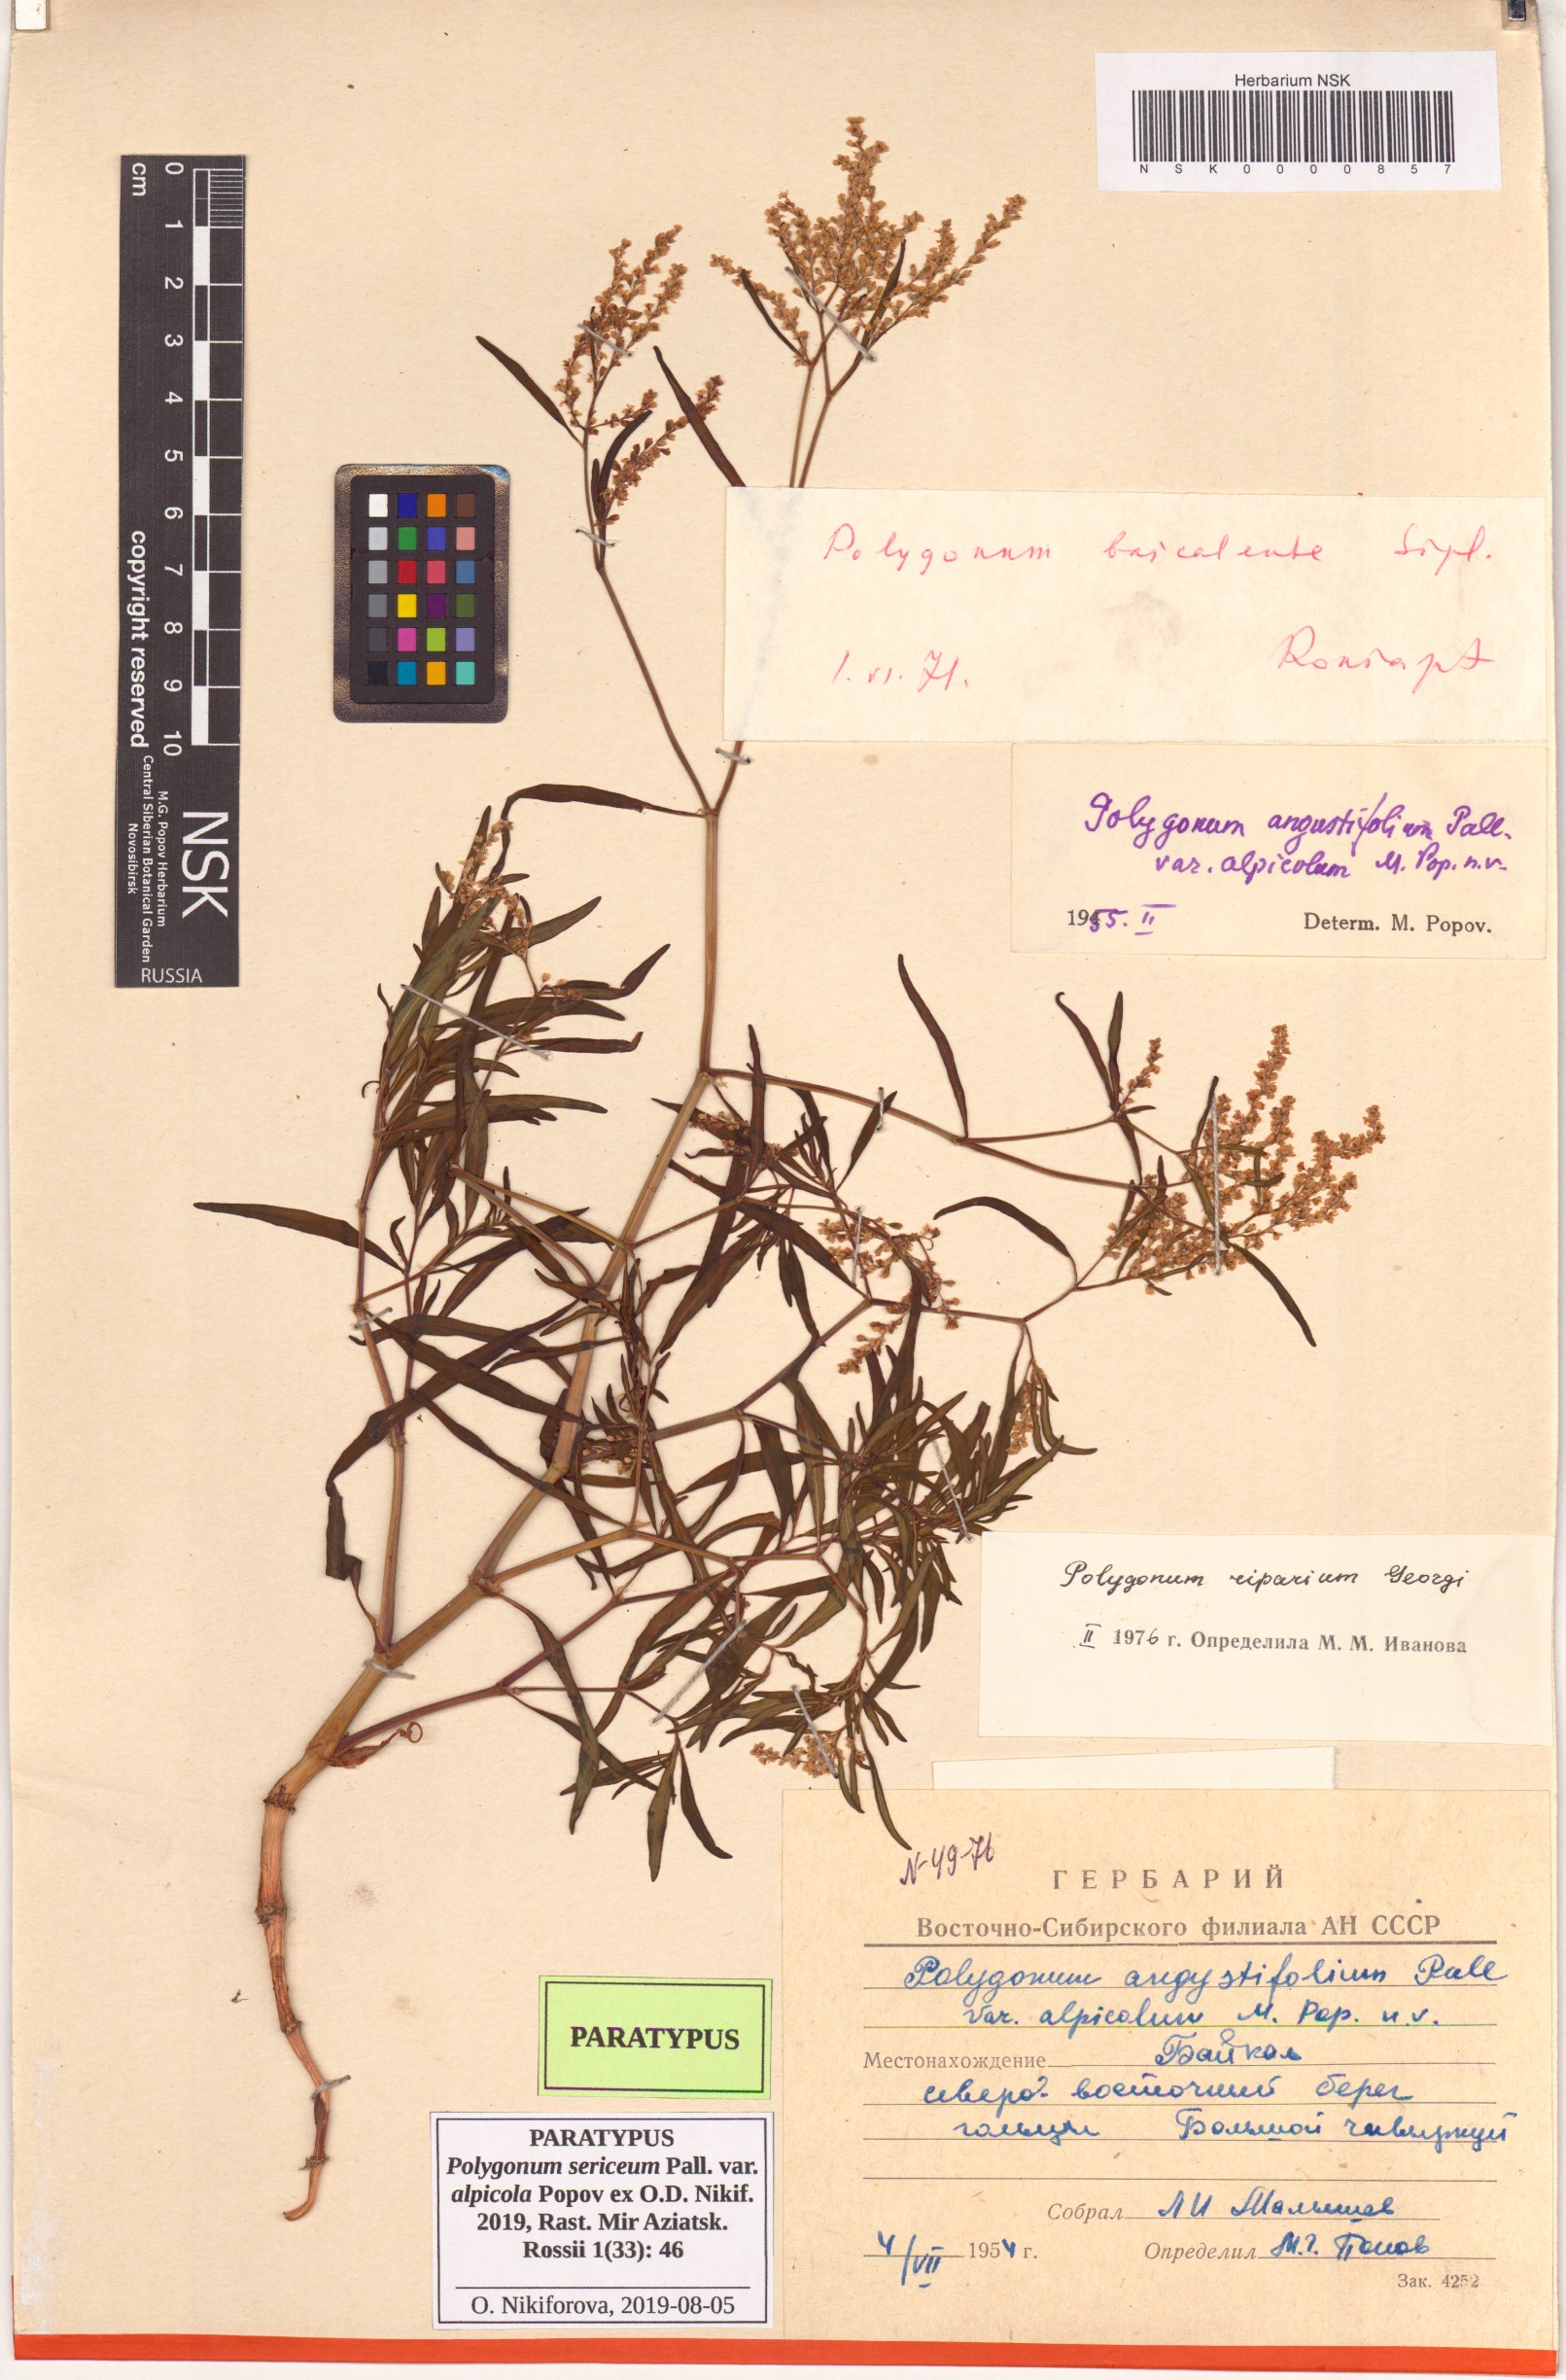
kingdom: Plantae
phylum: Tracheophyta
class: Magnoliopsida
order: Caryophyllales
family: Polygonaceae
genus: Polygonum
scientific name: Polygonum sericeum
